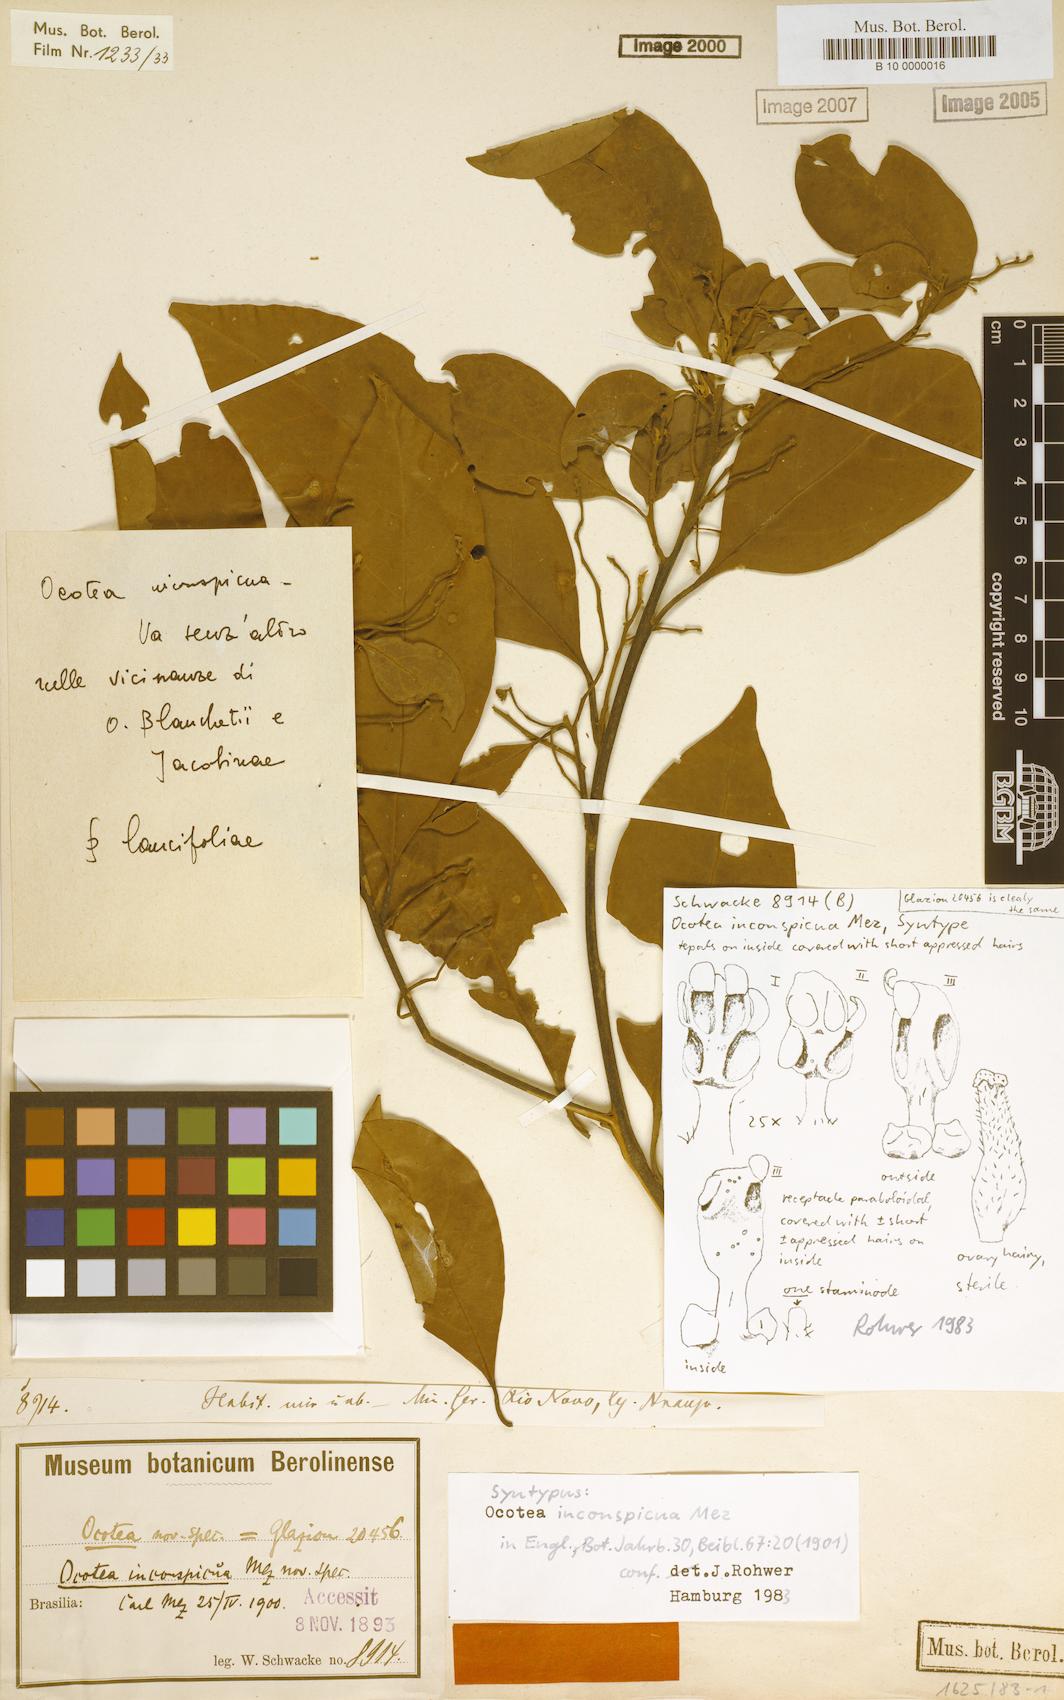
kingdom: Plantae
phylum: Tracheophyta
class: Magnoliopsida
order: Laurales
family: Lauraceae
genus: Ocotea
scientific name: Ocotea lancifolia
